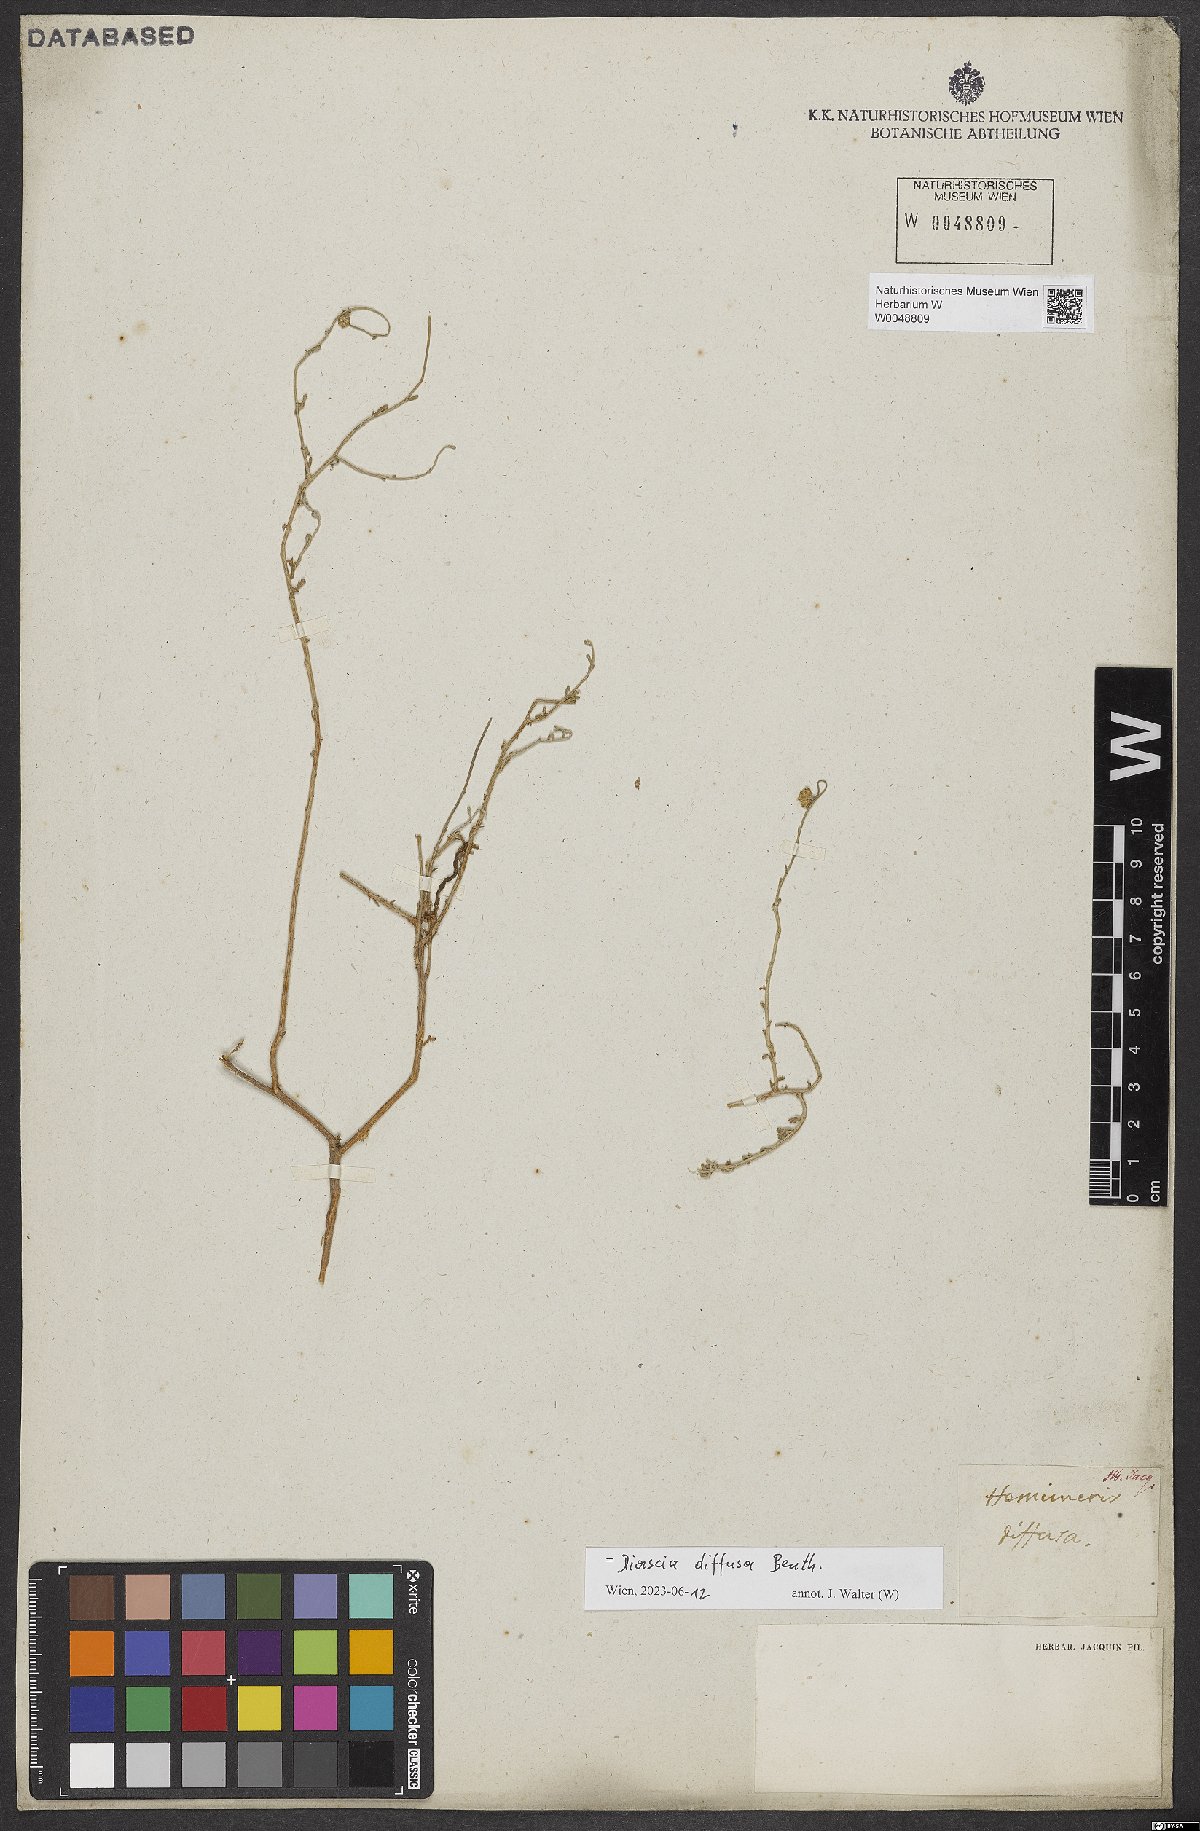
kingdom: Plantae
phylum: Tracheophyta
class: Magnoliopsida
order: Lamiales
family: Scrophulariaceae
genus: Diascia
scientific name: Diascia diffusa
